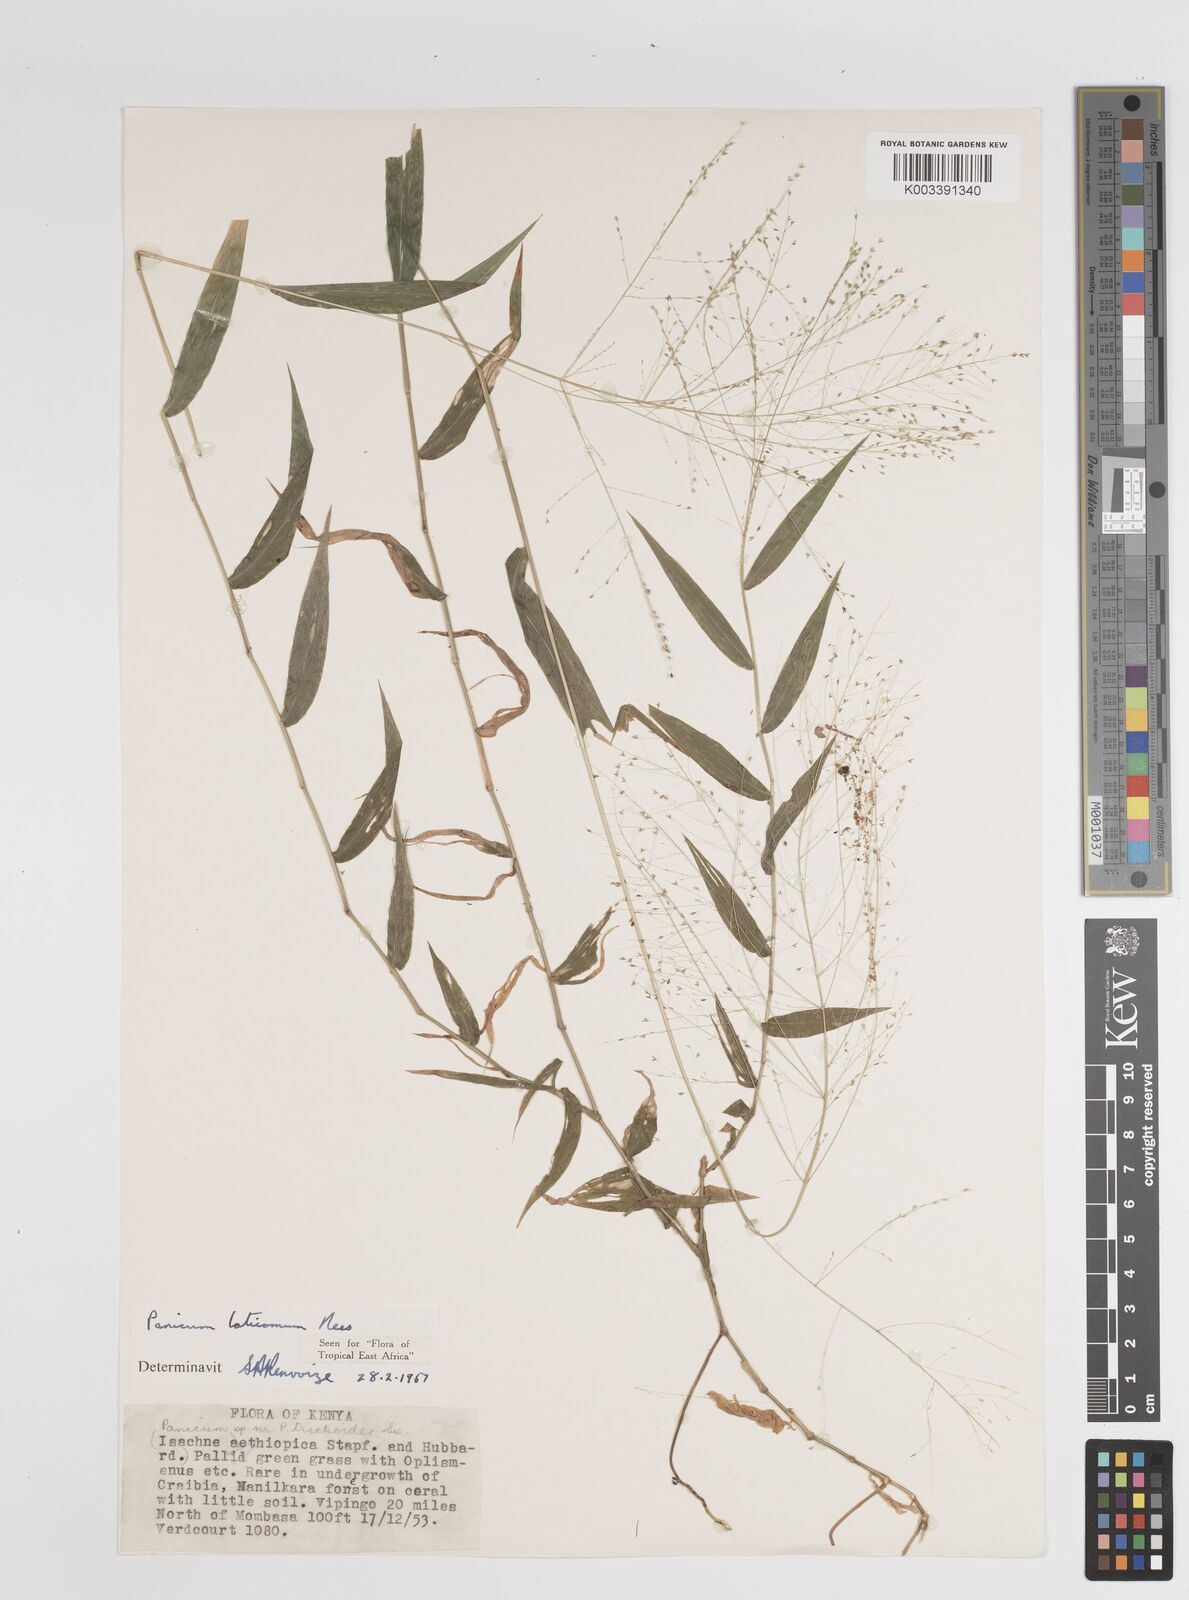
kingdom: Plantae
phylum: Tracheophyta
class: Liliopsida
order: Poales
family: Poaceae
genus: Panicum
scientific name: Panicum laticomum
